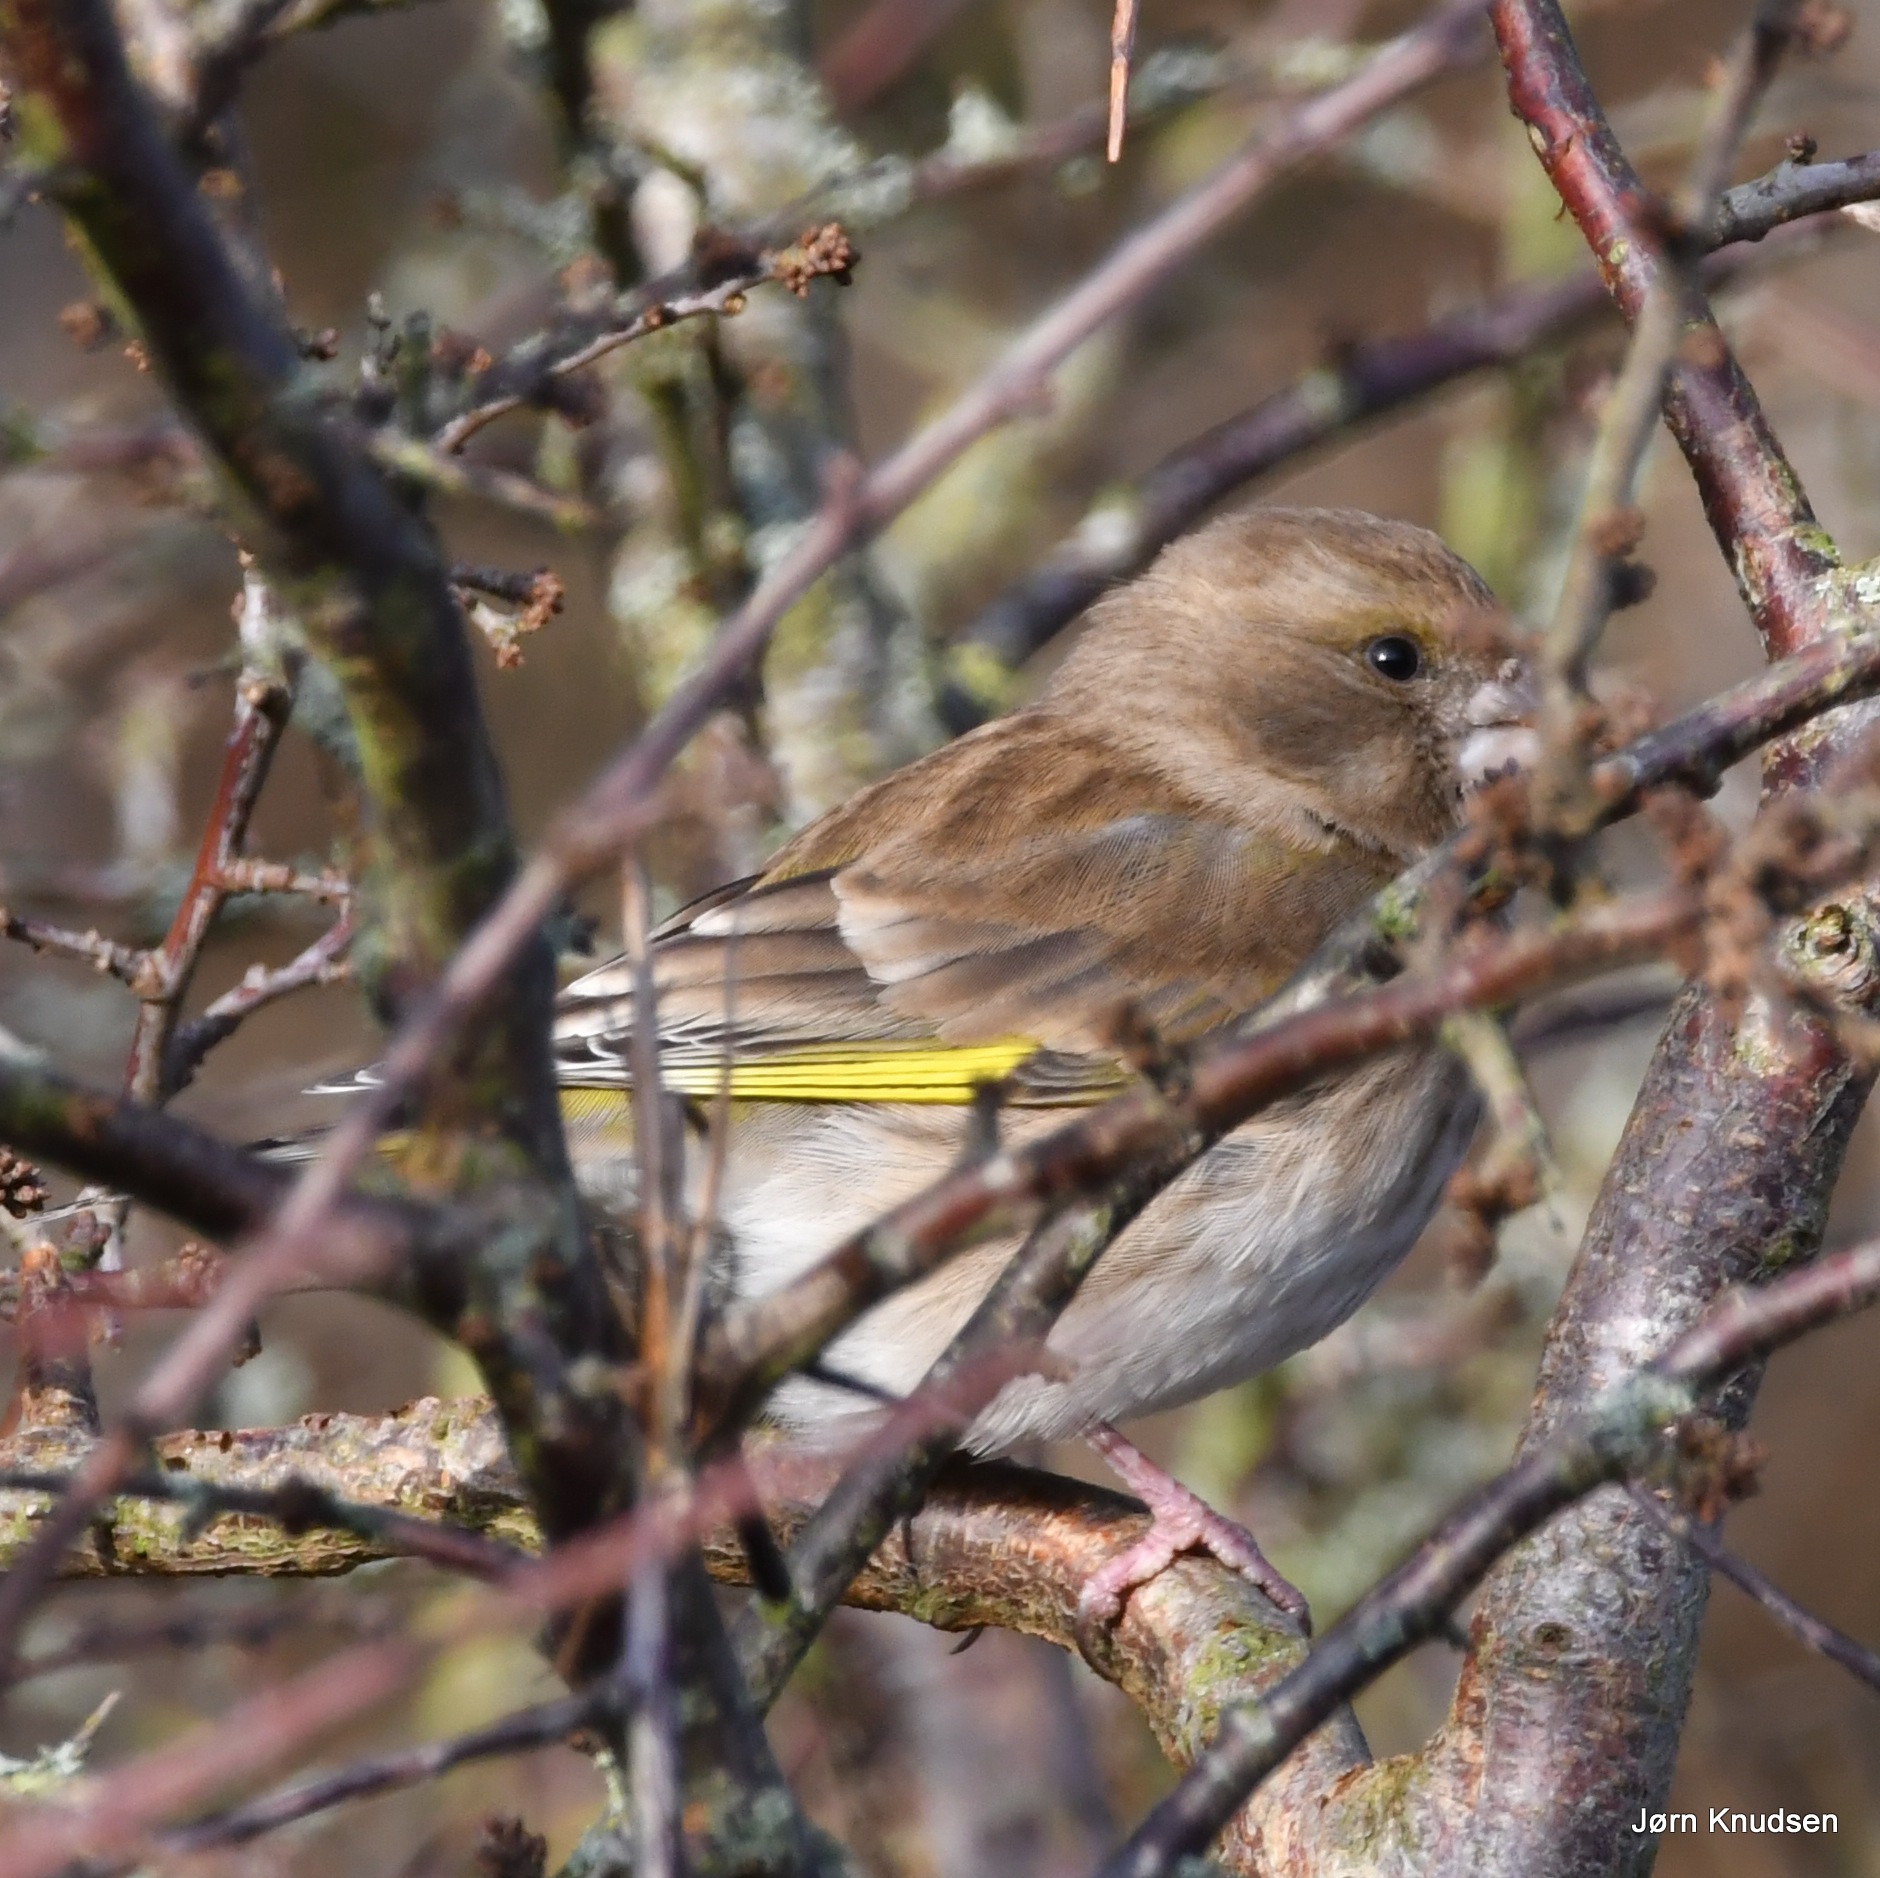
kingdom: Plantae
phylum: Tracheophyta
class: Liliopsida
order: Poales
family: Poaceae
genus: Chloris
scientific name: Chloris chloris
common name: Grønirisk
